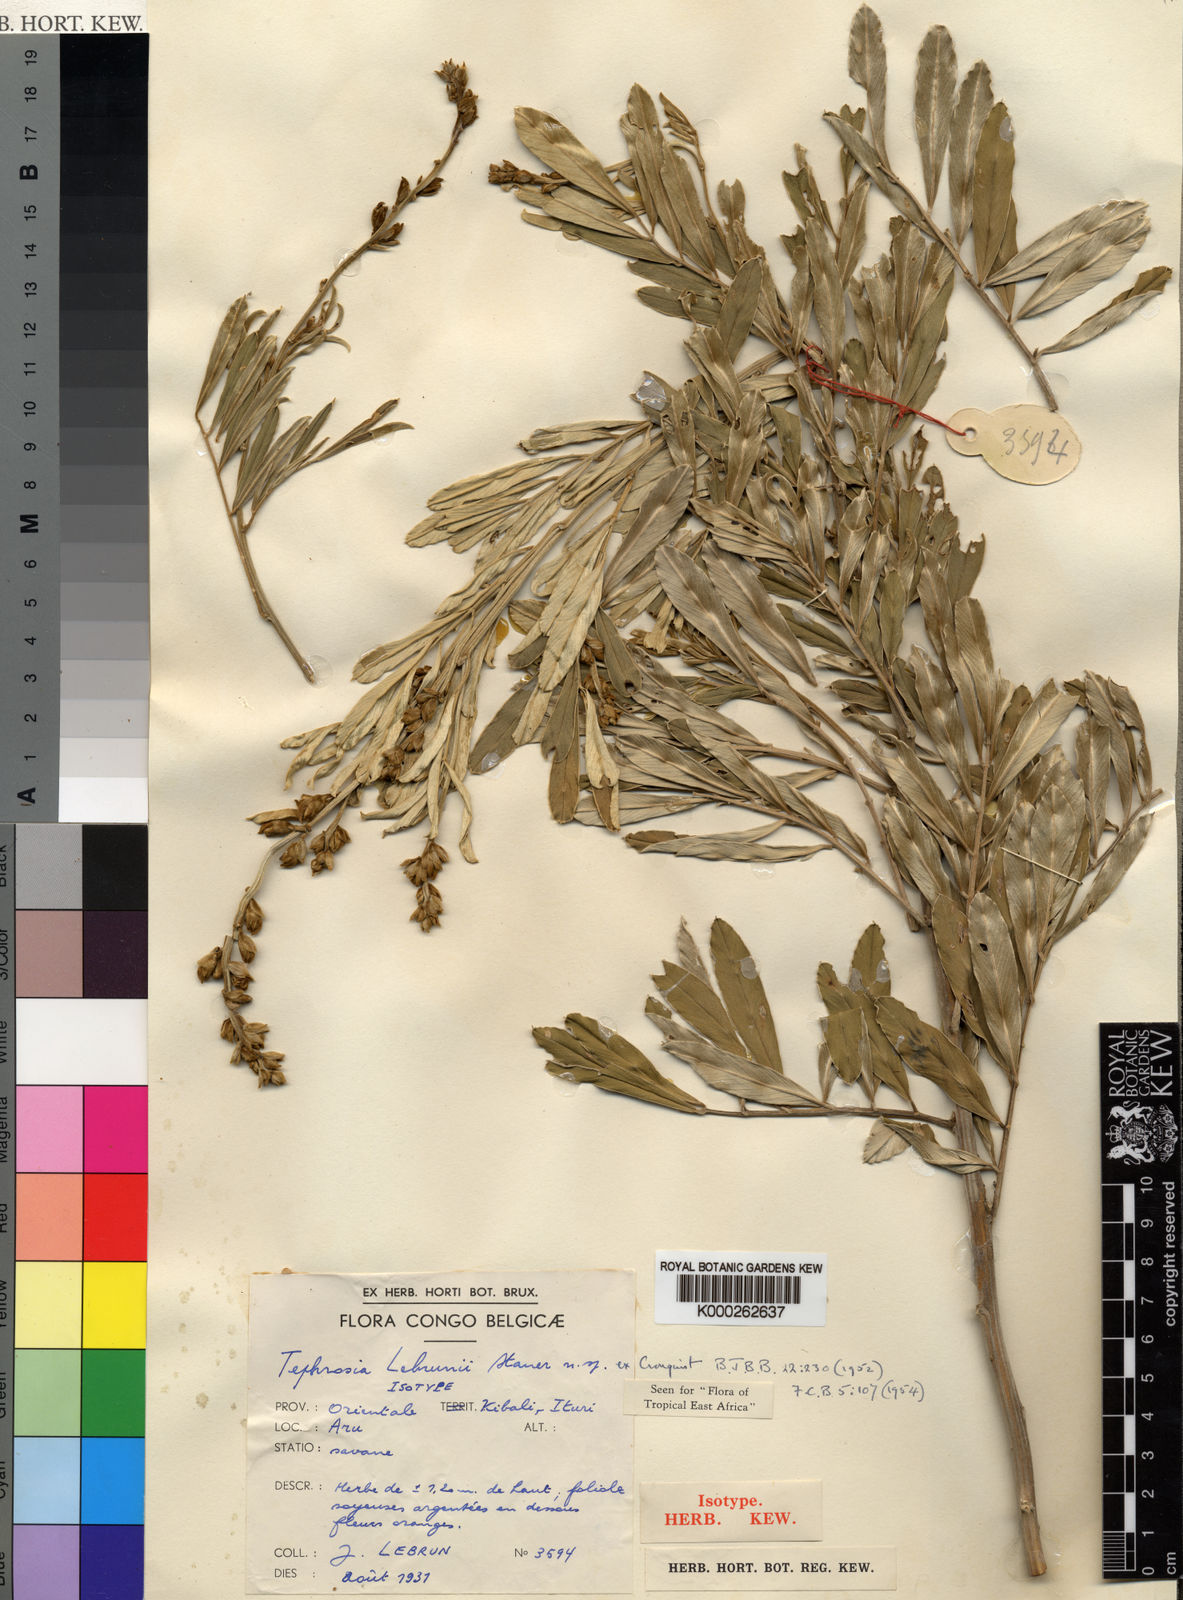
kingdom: Plantae
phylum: Tracheophyta
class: Magnoliopsida
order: Fabales
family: Fabaceae
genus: Tephrosia
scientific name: Tephrosia lebrunii
